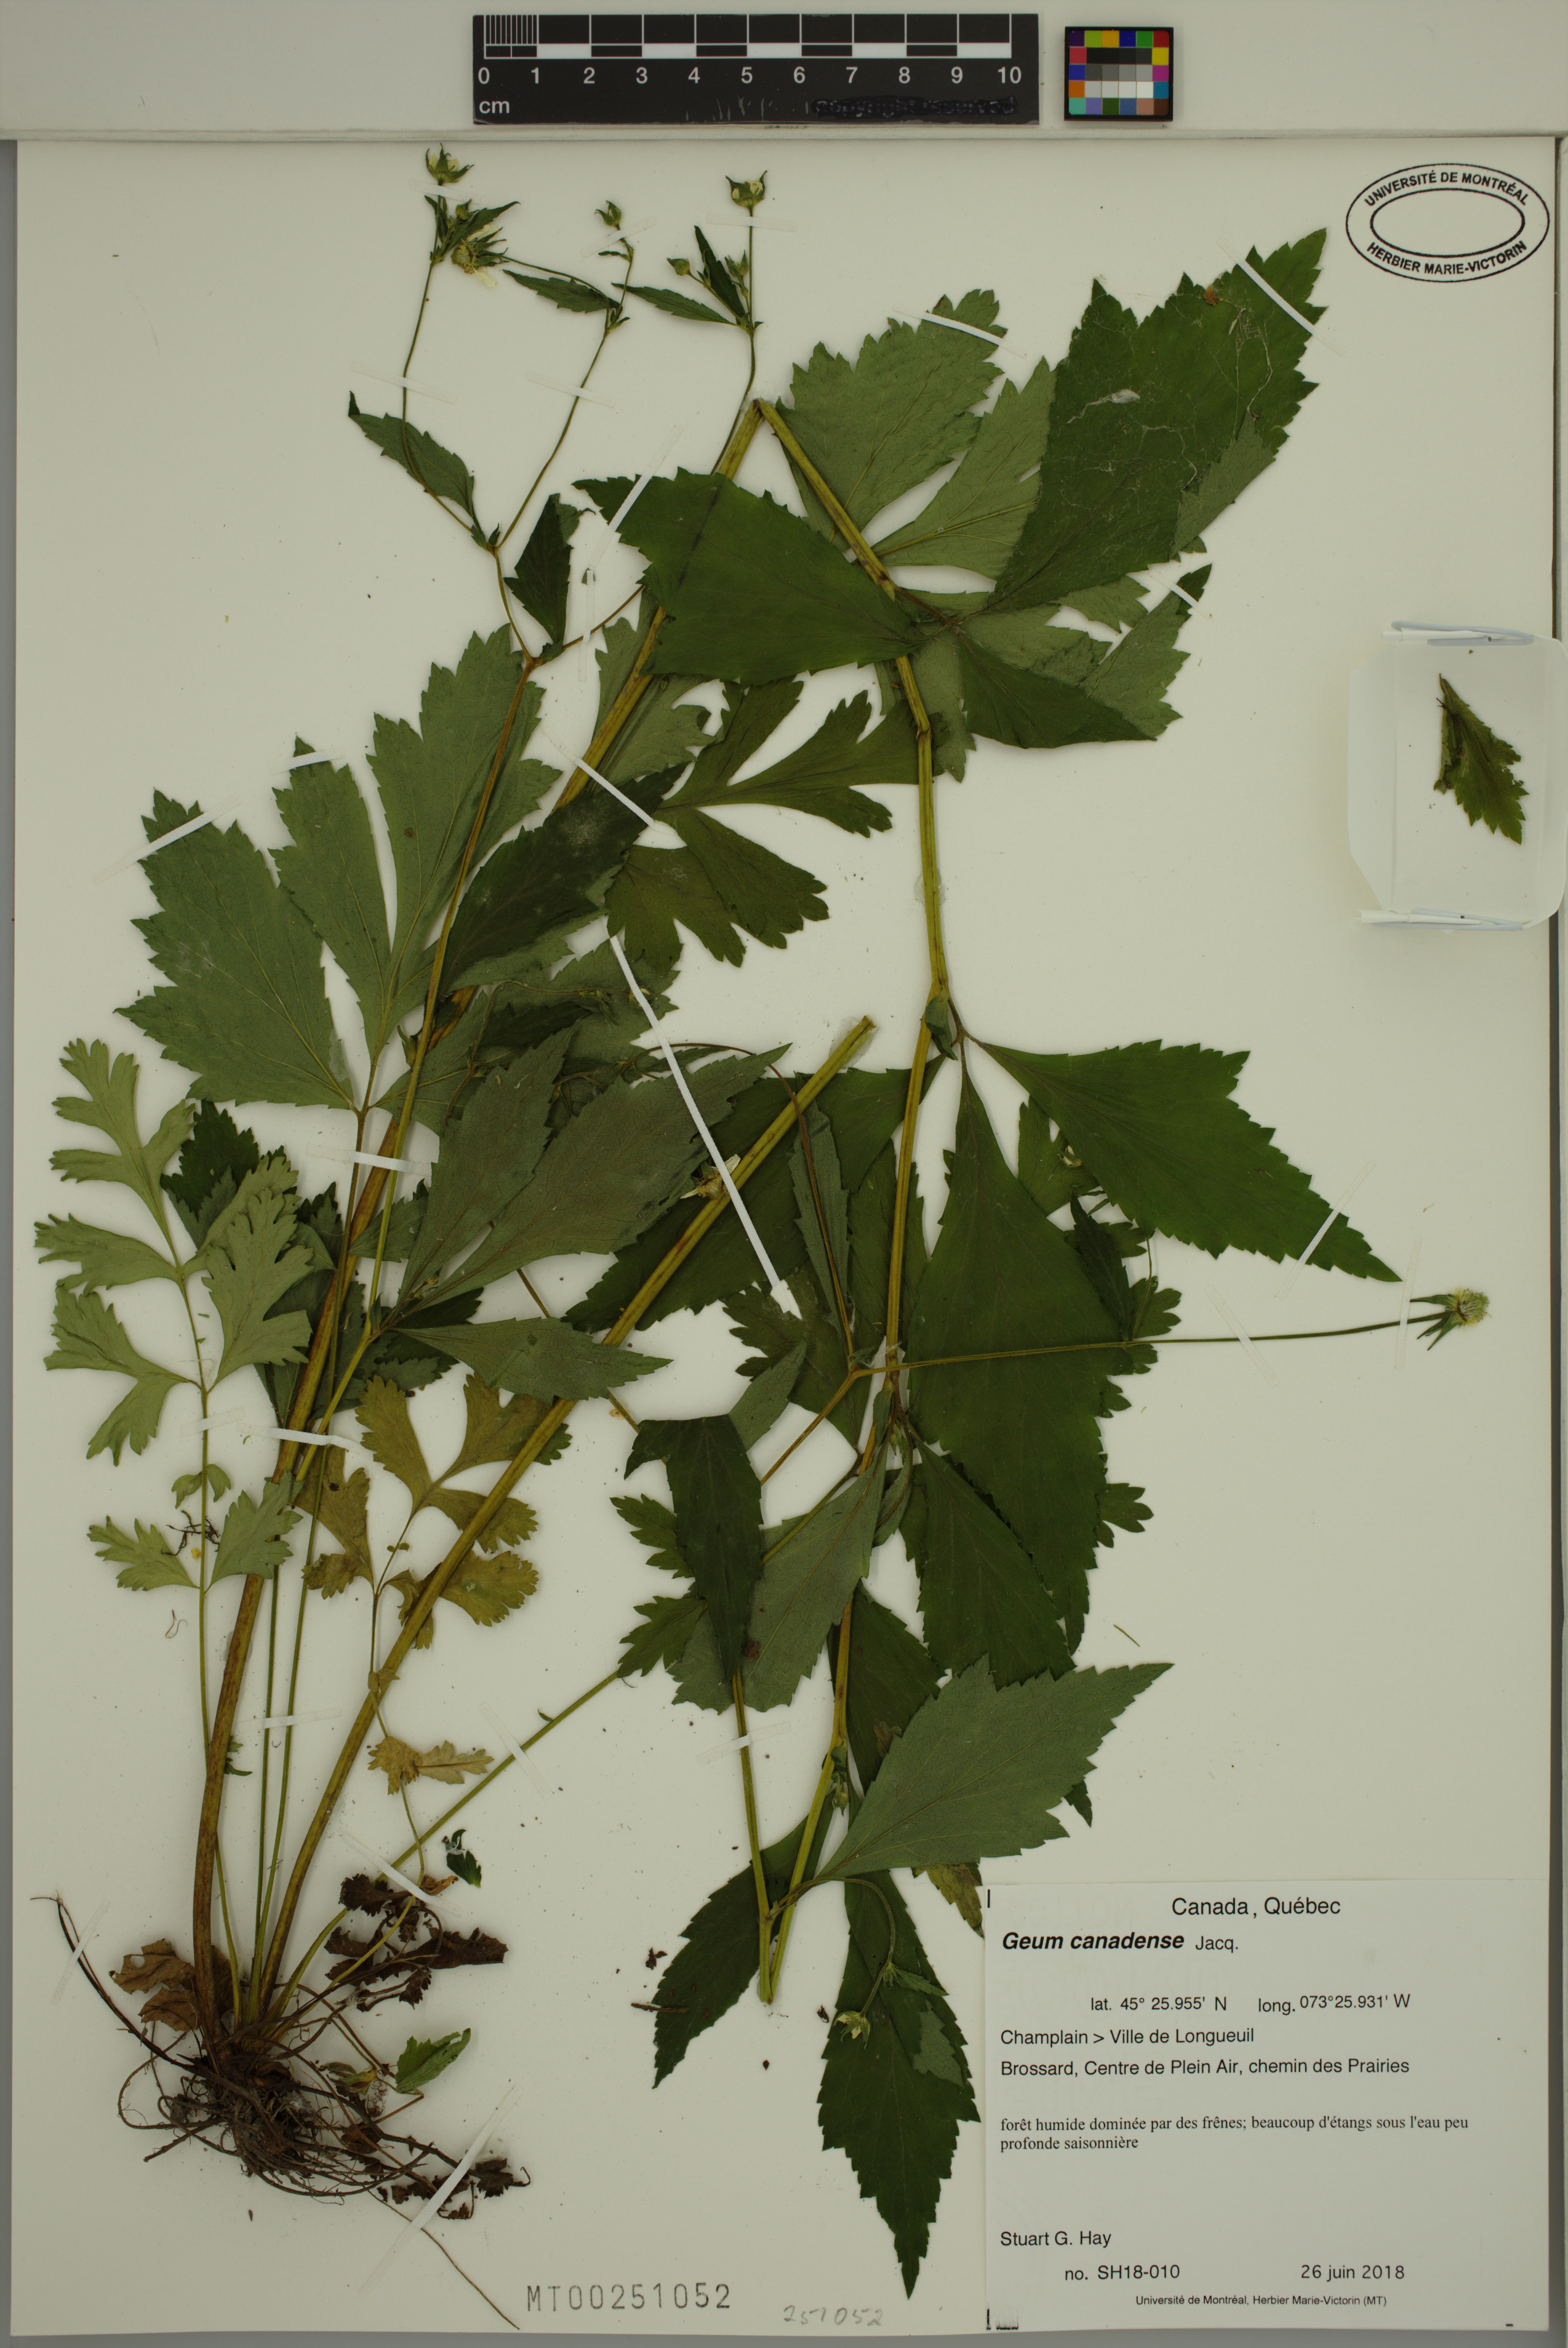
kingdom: Plantae
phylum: Tracheophyta
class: Magnoliopsida
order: Rosales
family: Rosaceae
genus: Geum
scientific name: Geum canadense
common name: White avens
